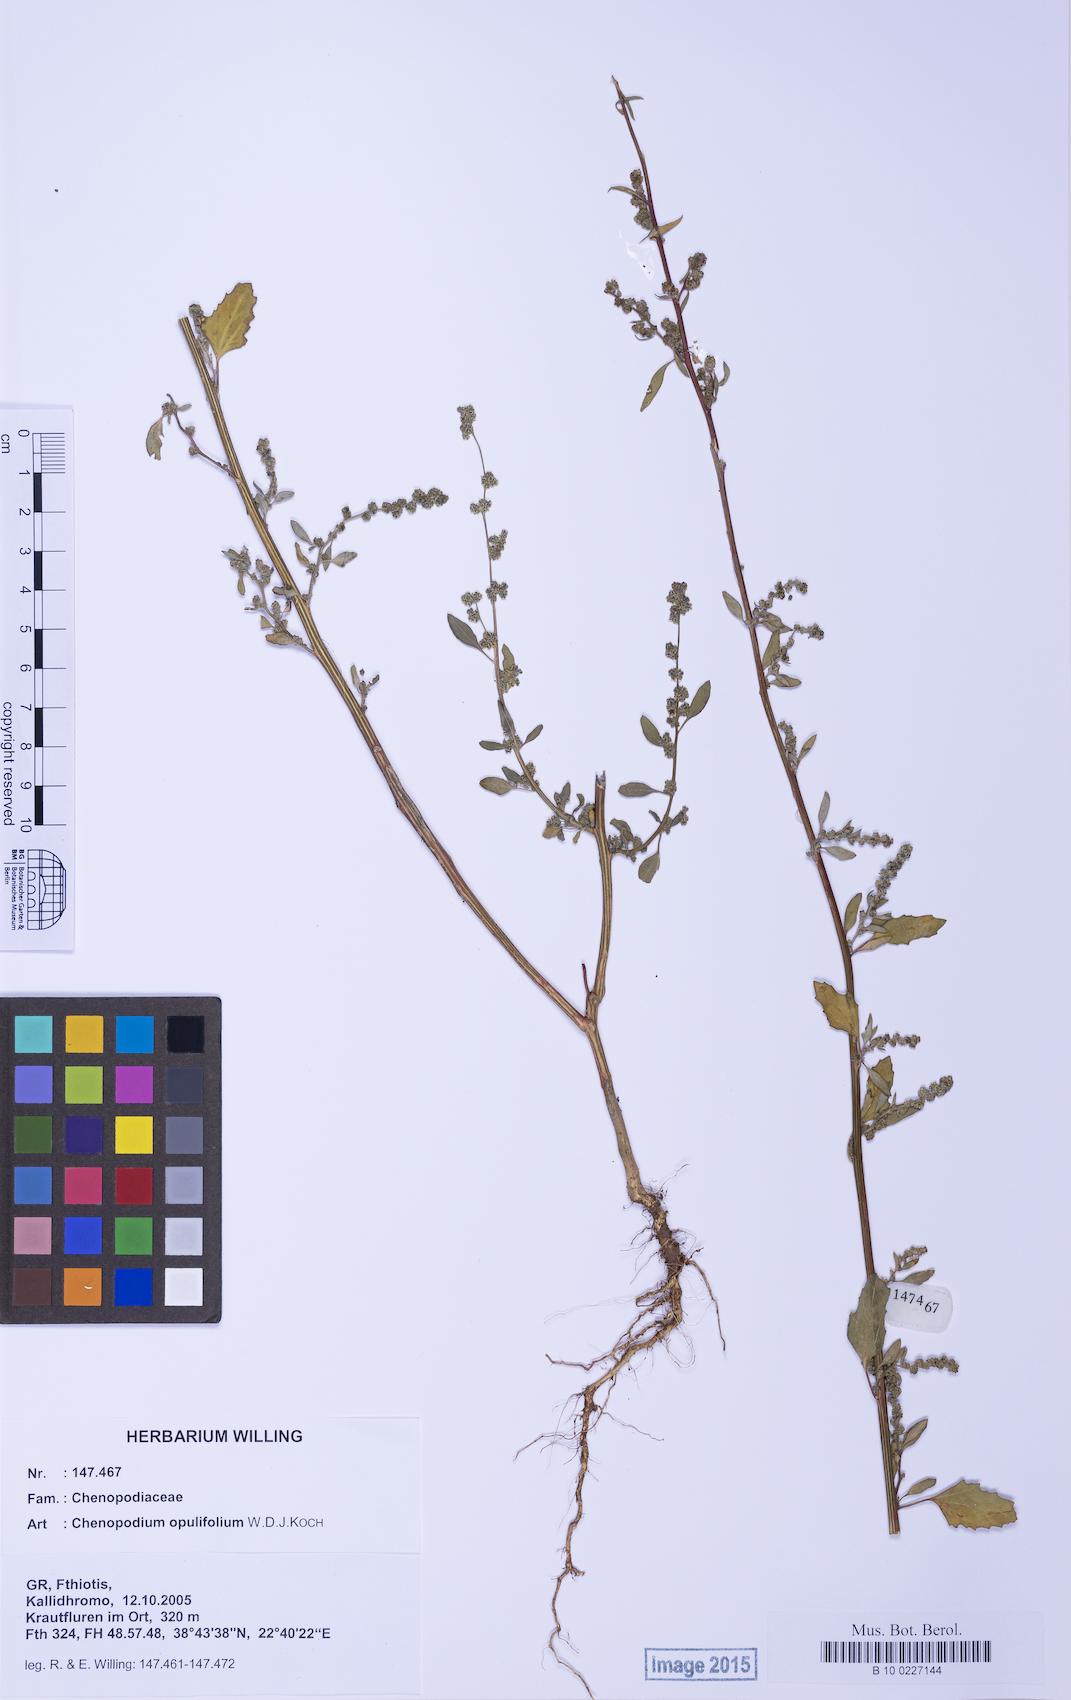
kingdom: Plantae
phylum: Tracheophyta
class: Magnoliopsida
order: Caryophyllales
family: Amaranthaceae
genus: Chenopodium
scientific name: Chenopodium album
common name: Fat-hen
